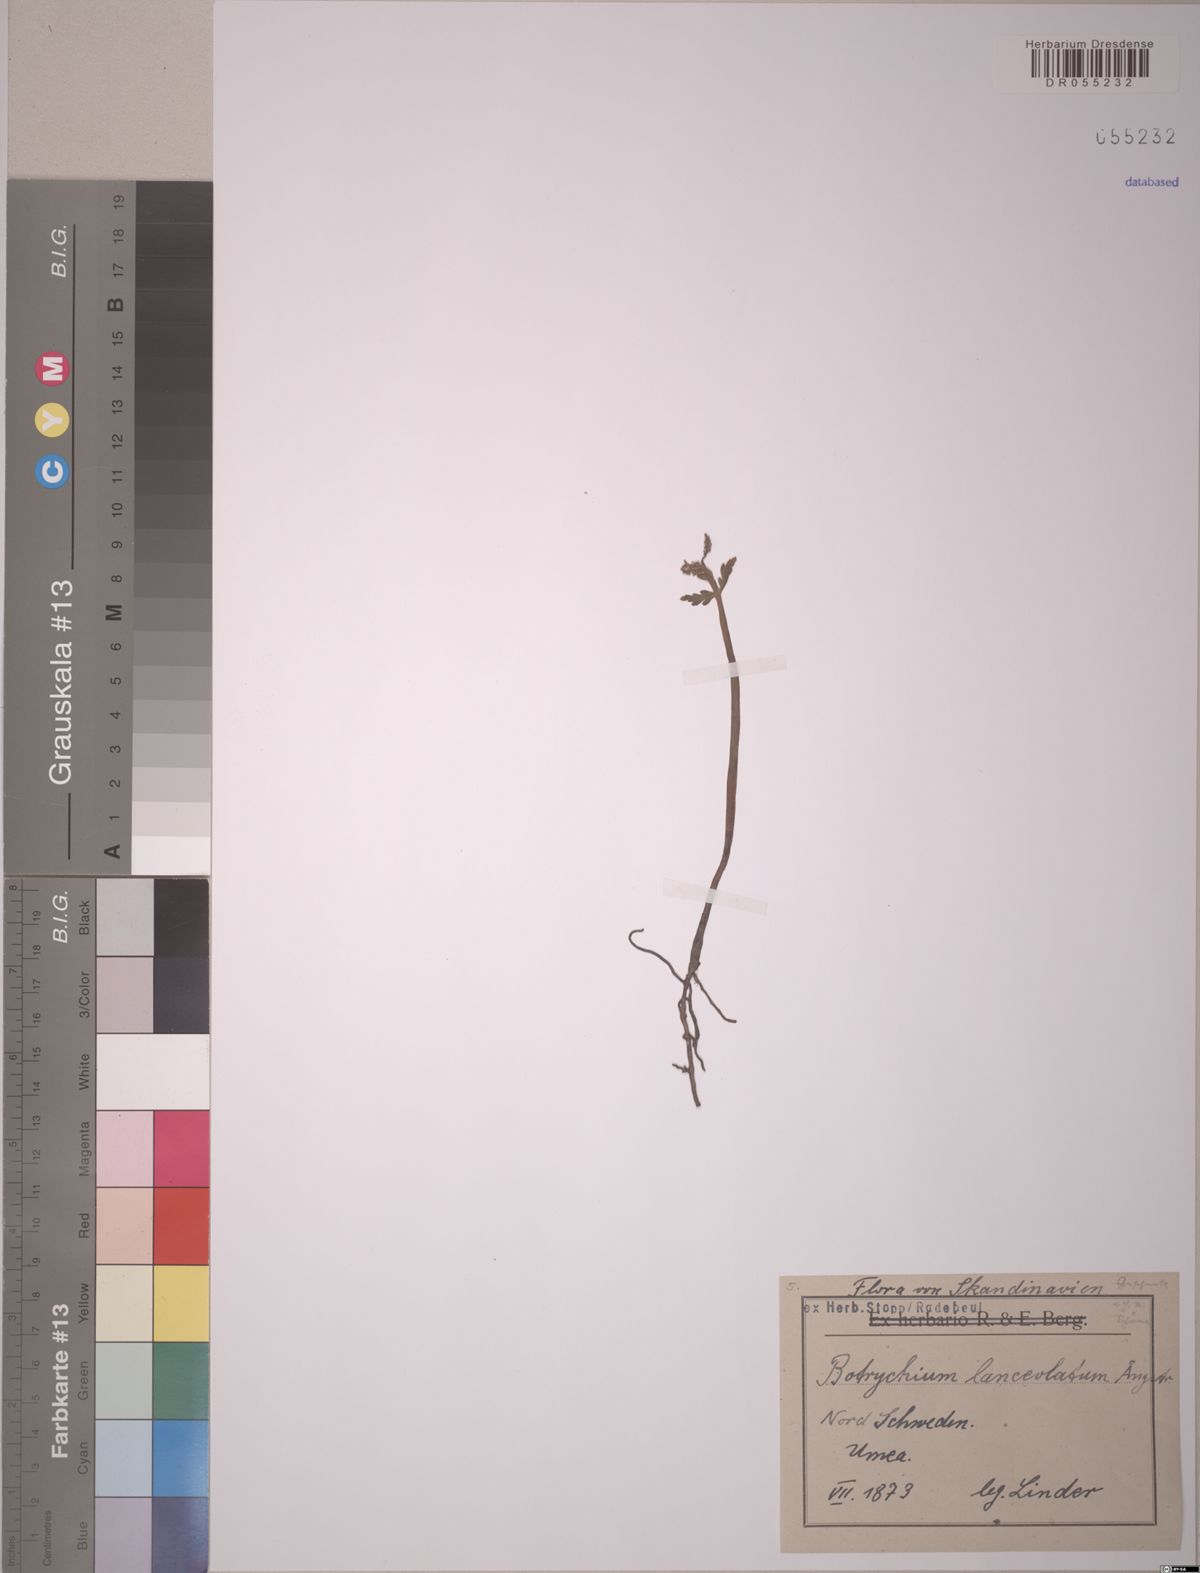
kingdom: Plantae
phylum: Tracheophyta
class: Polypodiopsida
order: Ophioglossales
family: Ophioglossaceae
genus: Botrychium
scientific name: Botrychium lanceolatum
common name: Lance-leaved moonwort
